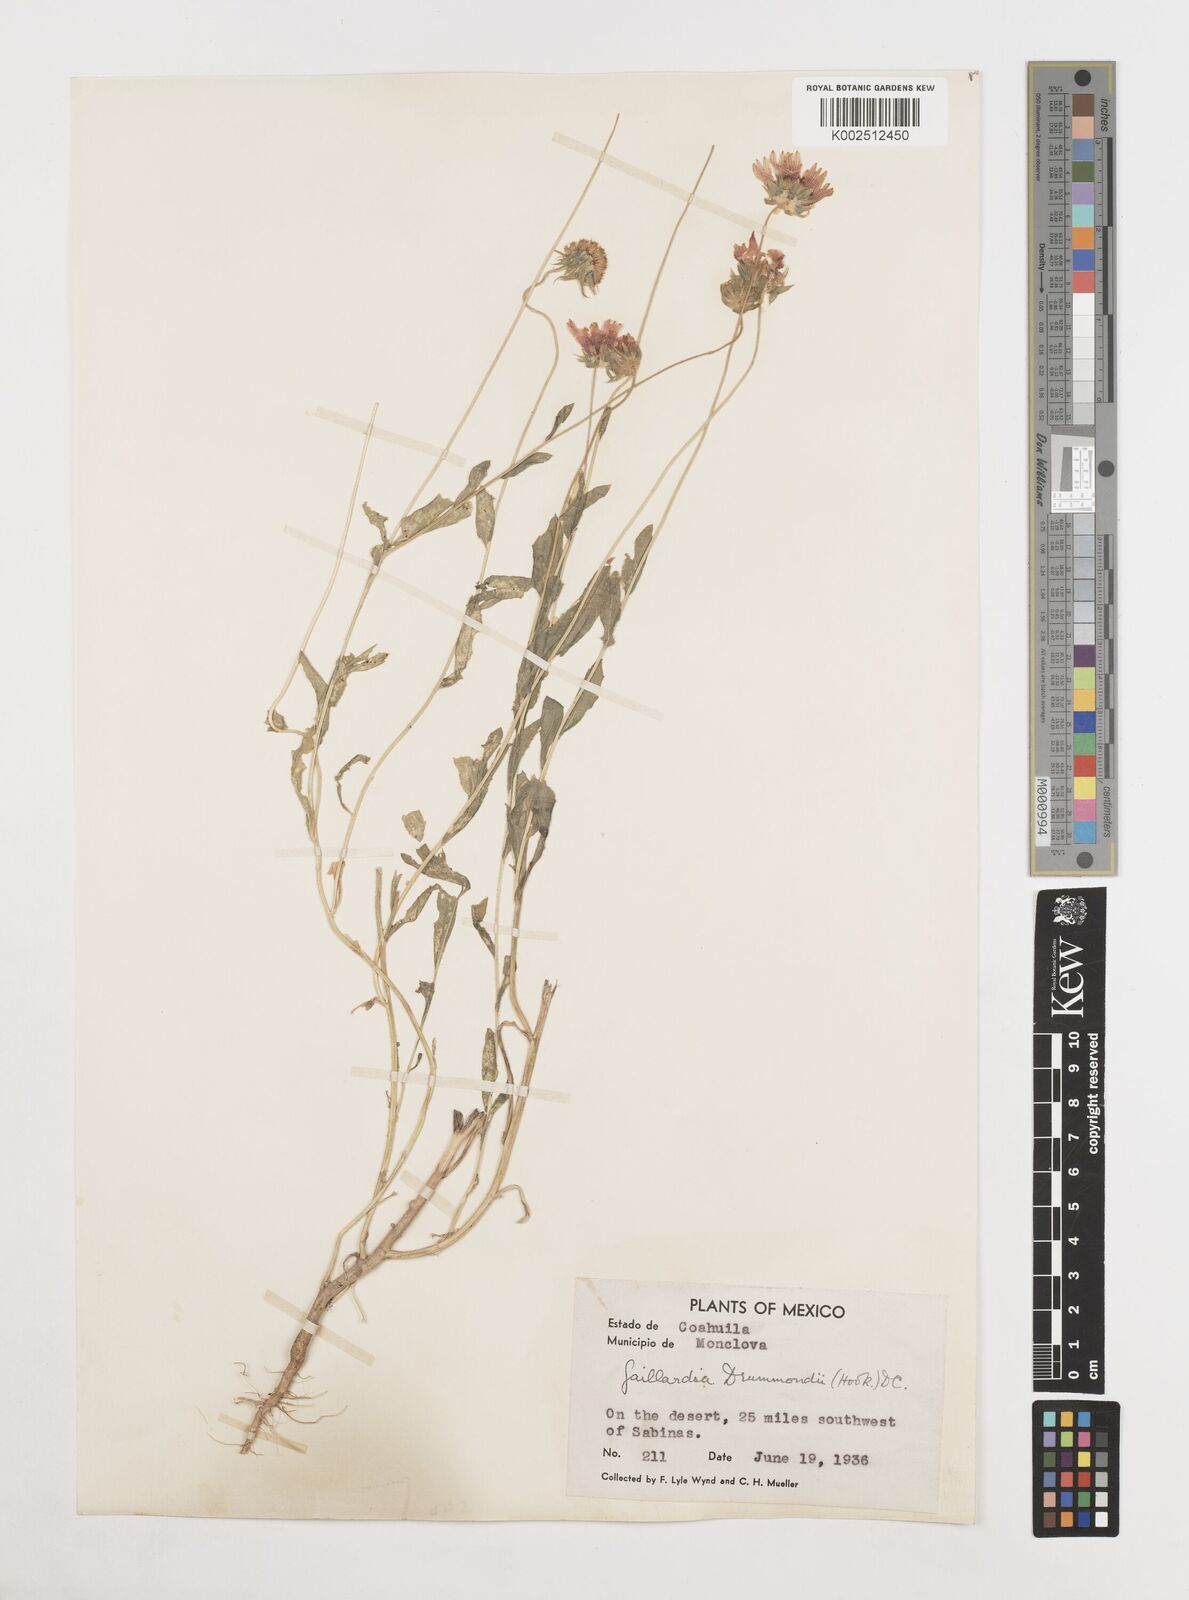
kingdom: Plantae
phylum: Tracheophyta
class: Magnoliopsida
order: Asterales
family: Asteraceae
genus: Gaillardia
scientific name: Gaillardia pulchella
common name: Firewheel
